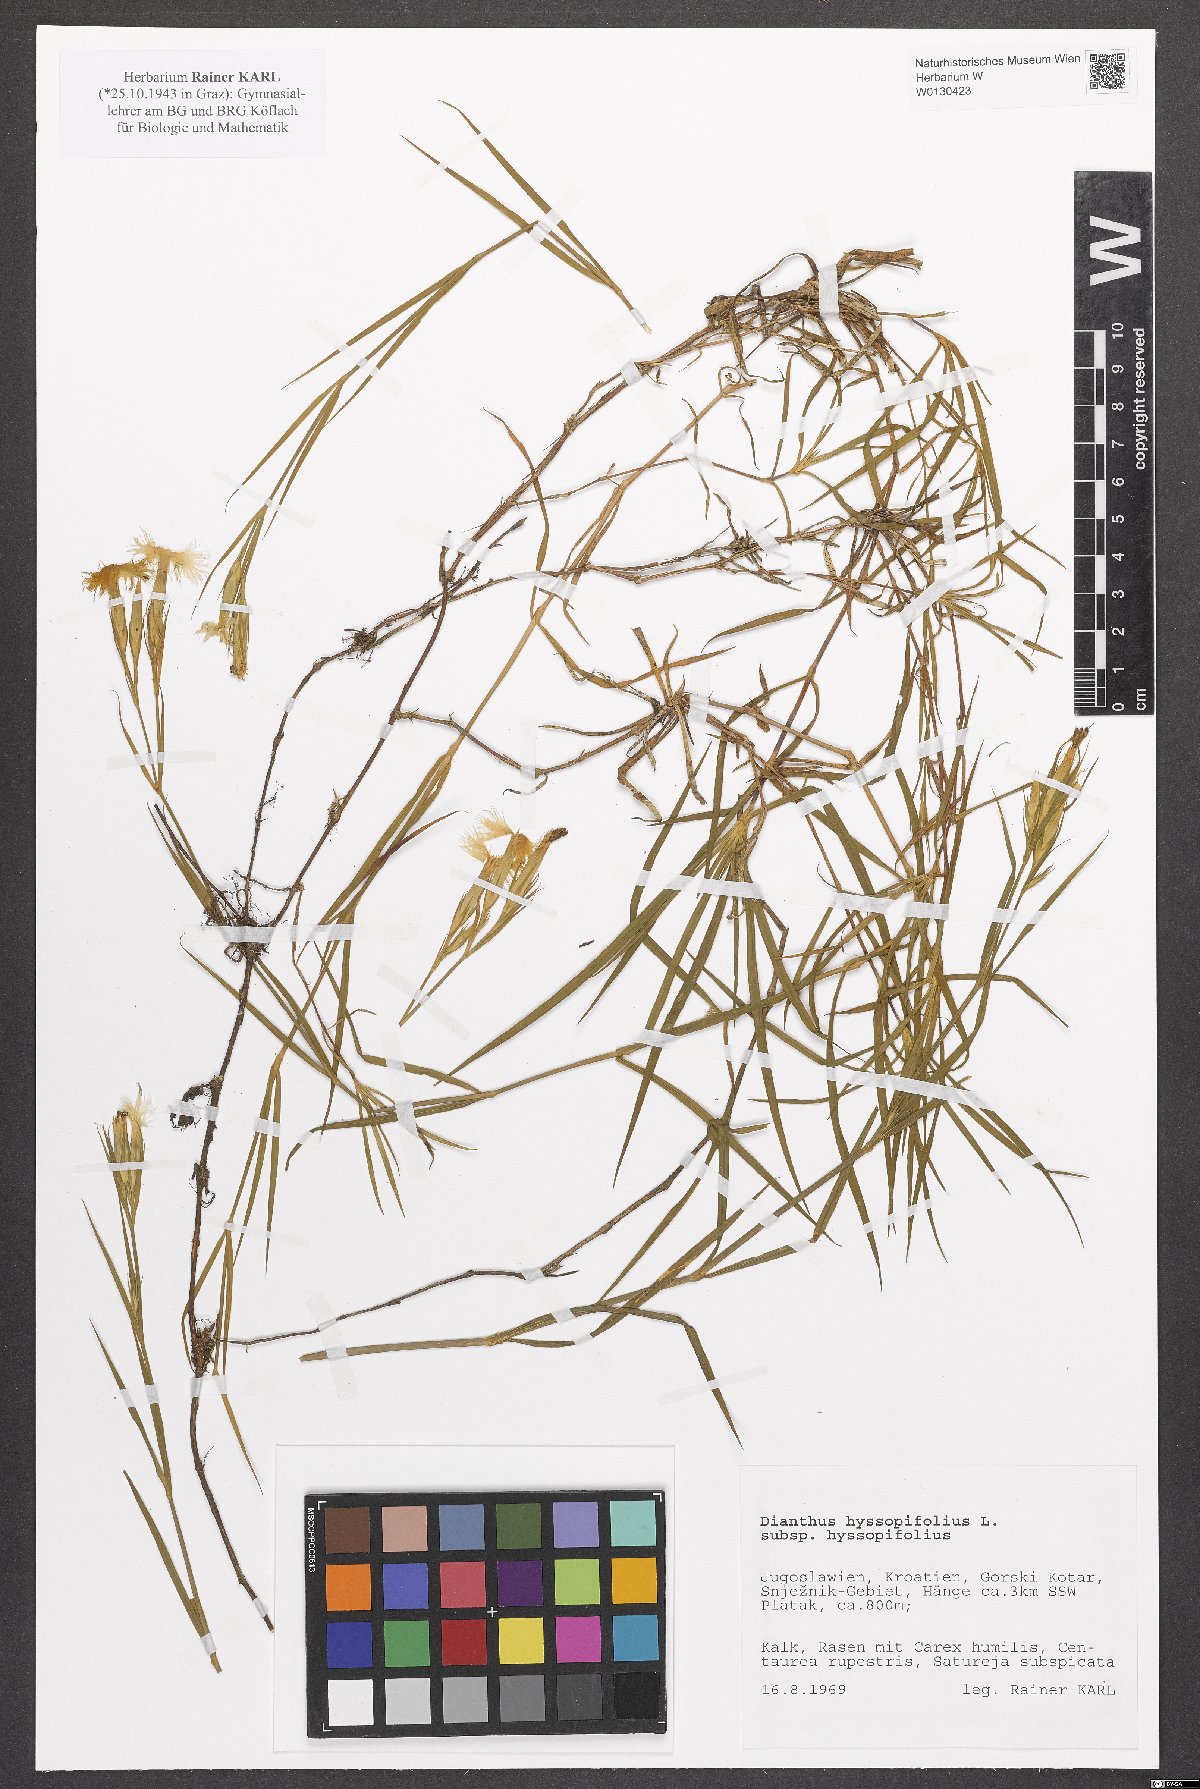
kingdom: Plantae
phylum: Tracheophyta
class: Magnoliopsida
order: Caryophyllales
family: Caryophyllaceae
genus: Dianthus
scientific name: Dianthus hyssopifolius
